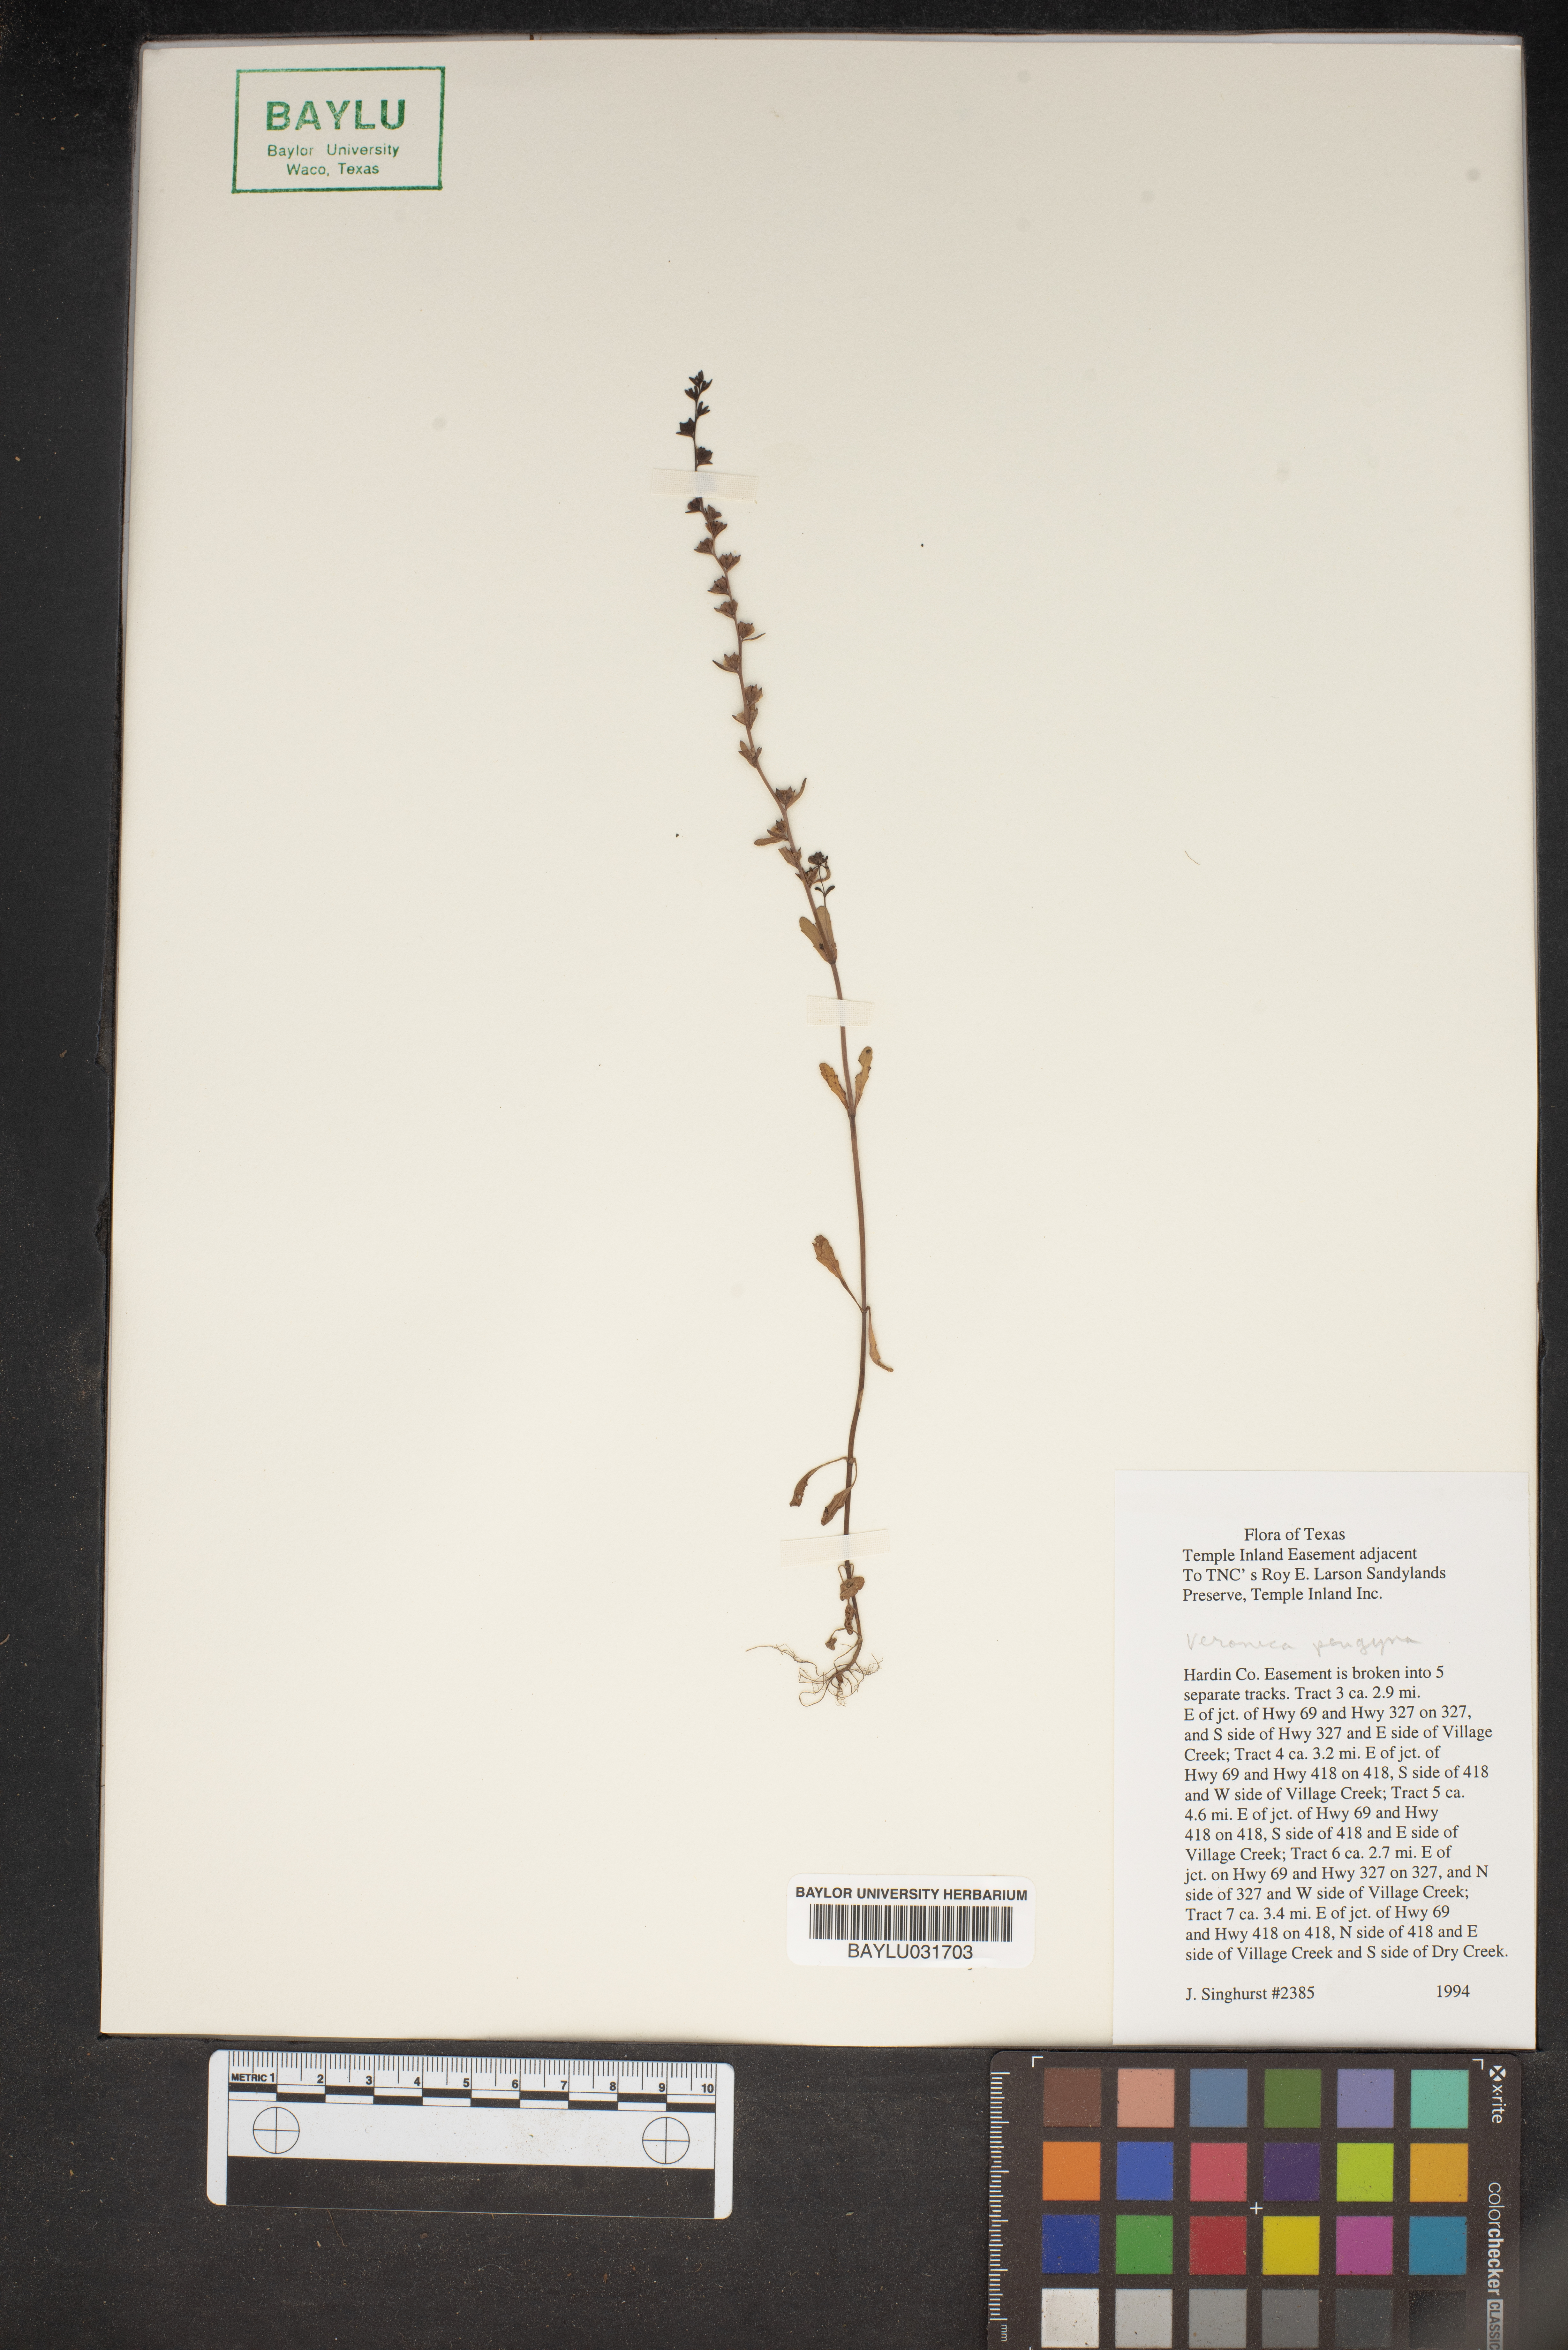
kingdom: Plantae
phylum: Tracheophyta
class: Magnoliopsida
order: Lamiales
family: Plantaginaceae
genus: Veronica
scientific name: Veronica peregrina
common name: Neckweed
